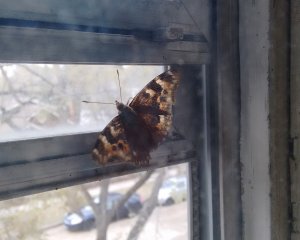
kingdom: Animalia
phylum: Arthropoda
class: Insecta
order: Lepidoptera
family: Nymphalidae
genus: Polygonia
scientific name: Polygonia vaualbum
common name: Compton Tortoiseshell
